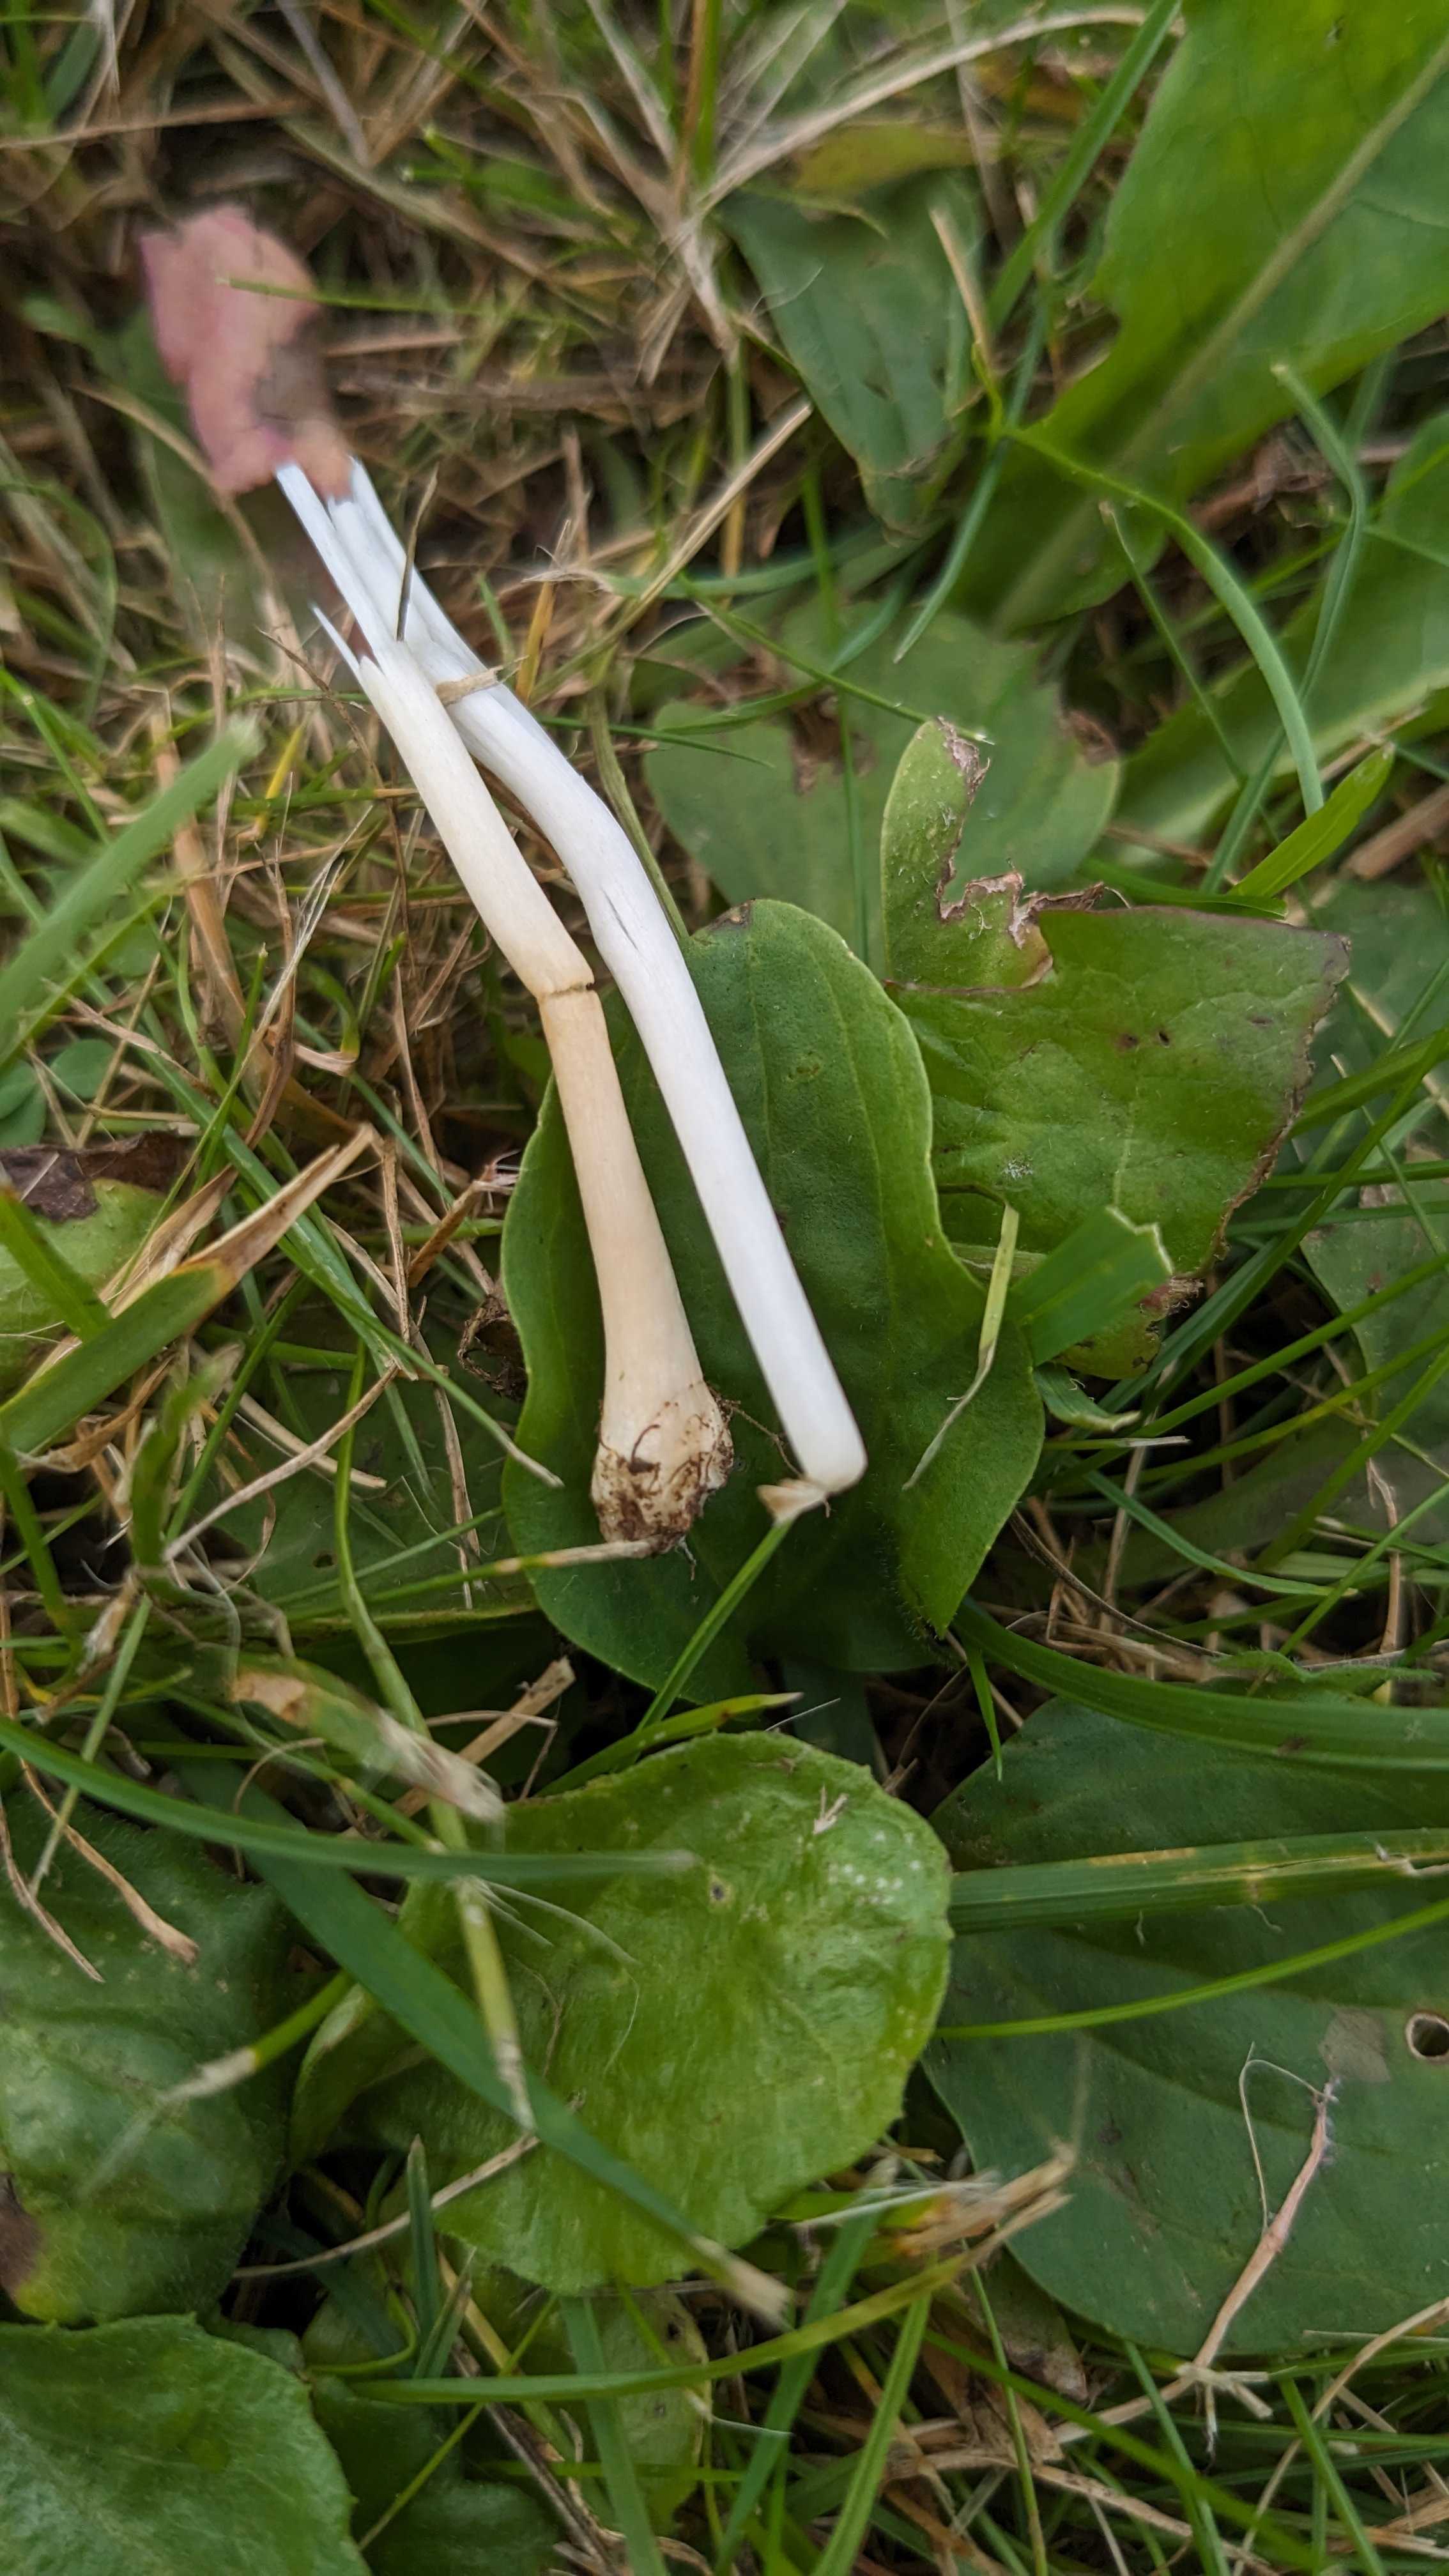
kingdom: Fungi
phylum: Basidiomycota
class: Agaricomycetes
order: Agaricales
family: Bolbitiaceae
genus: Conocybe
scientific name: Conocybe apala
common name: mælkehvid keglehat
